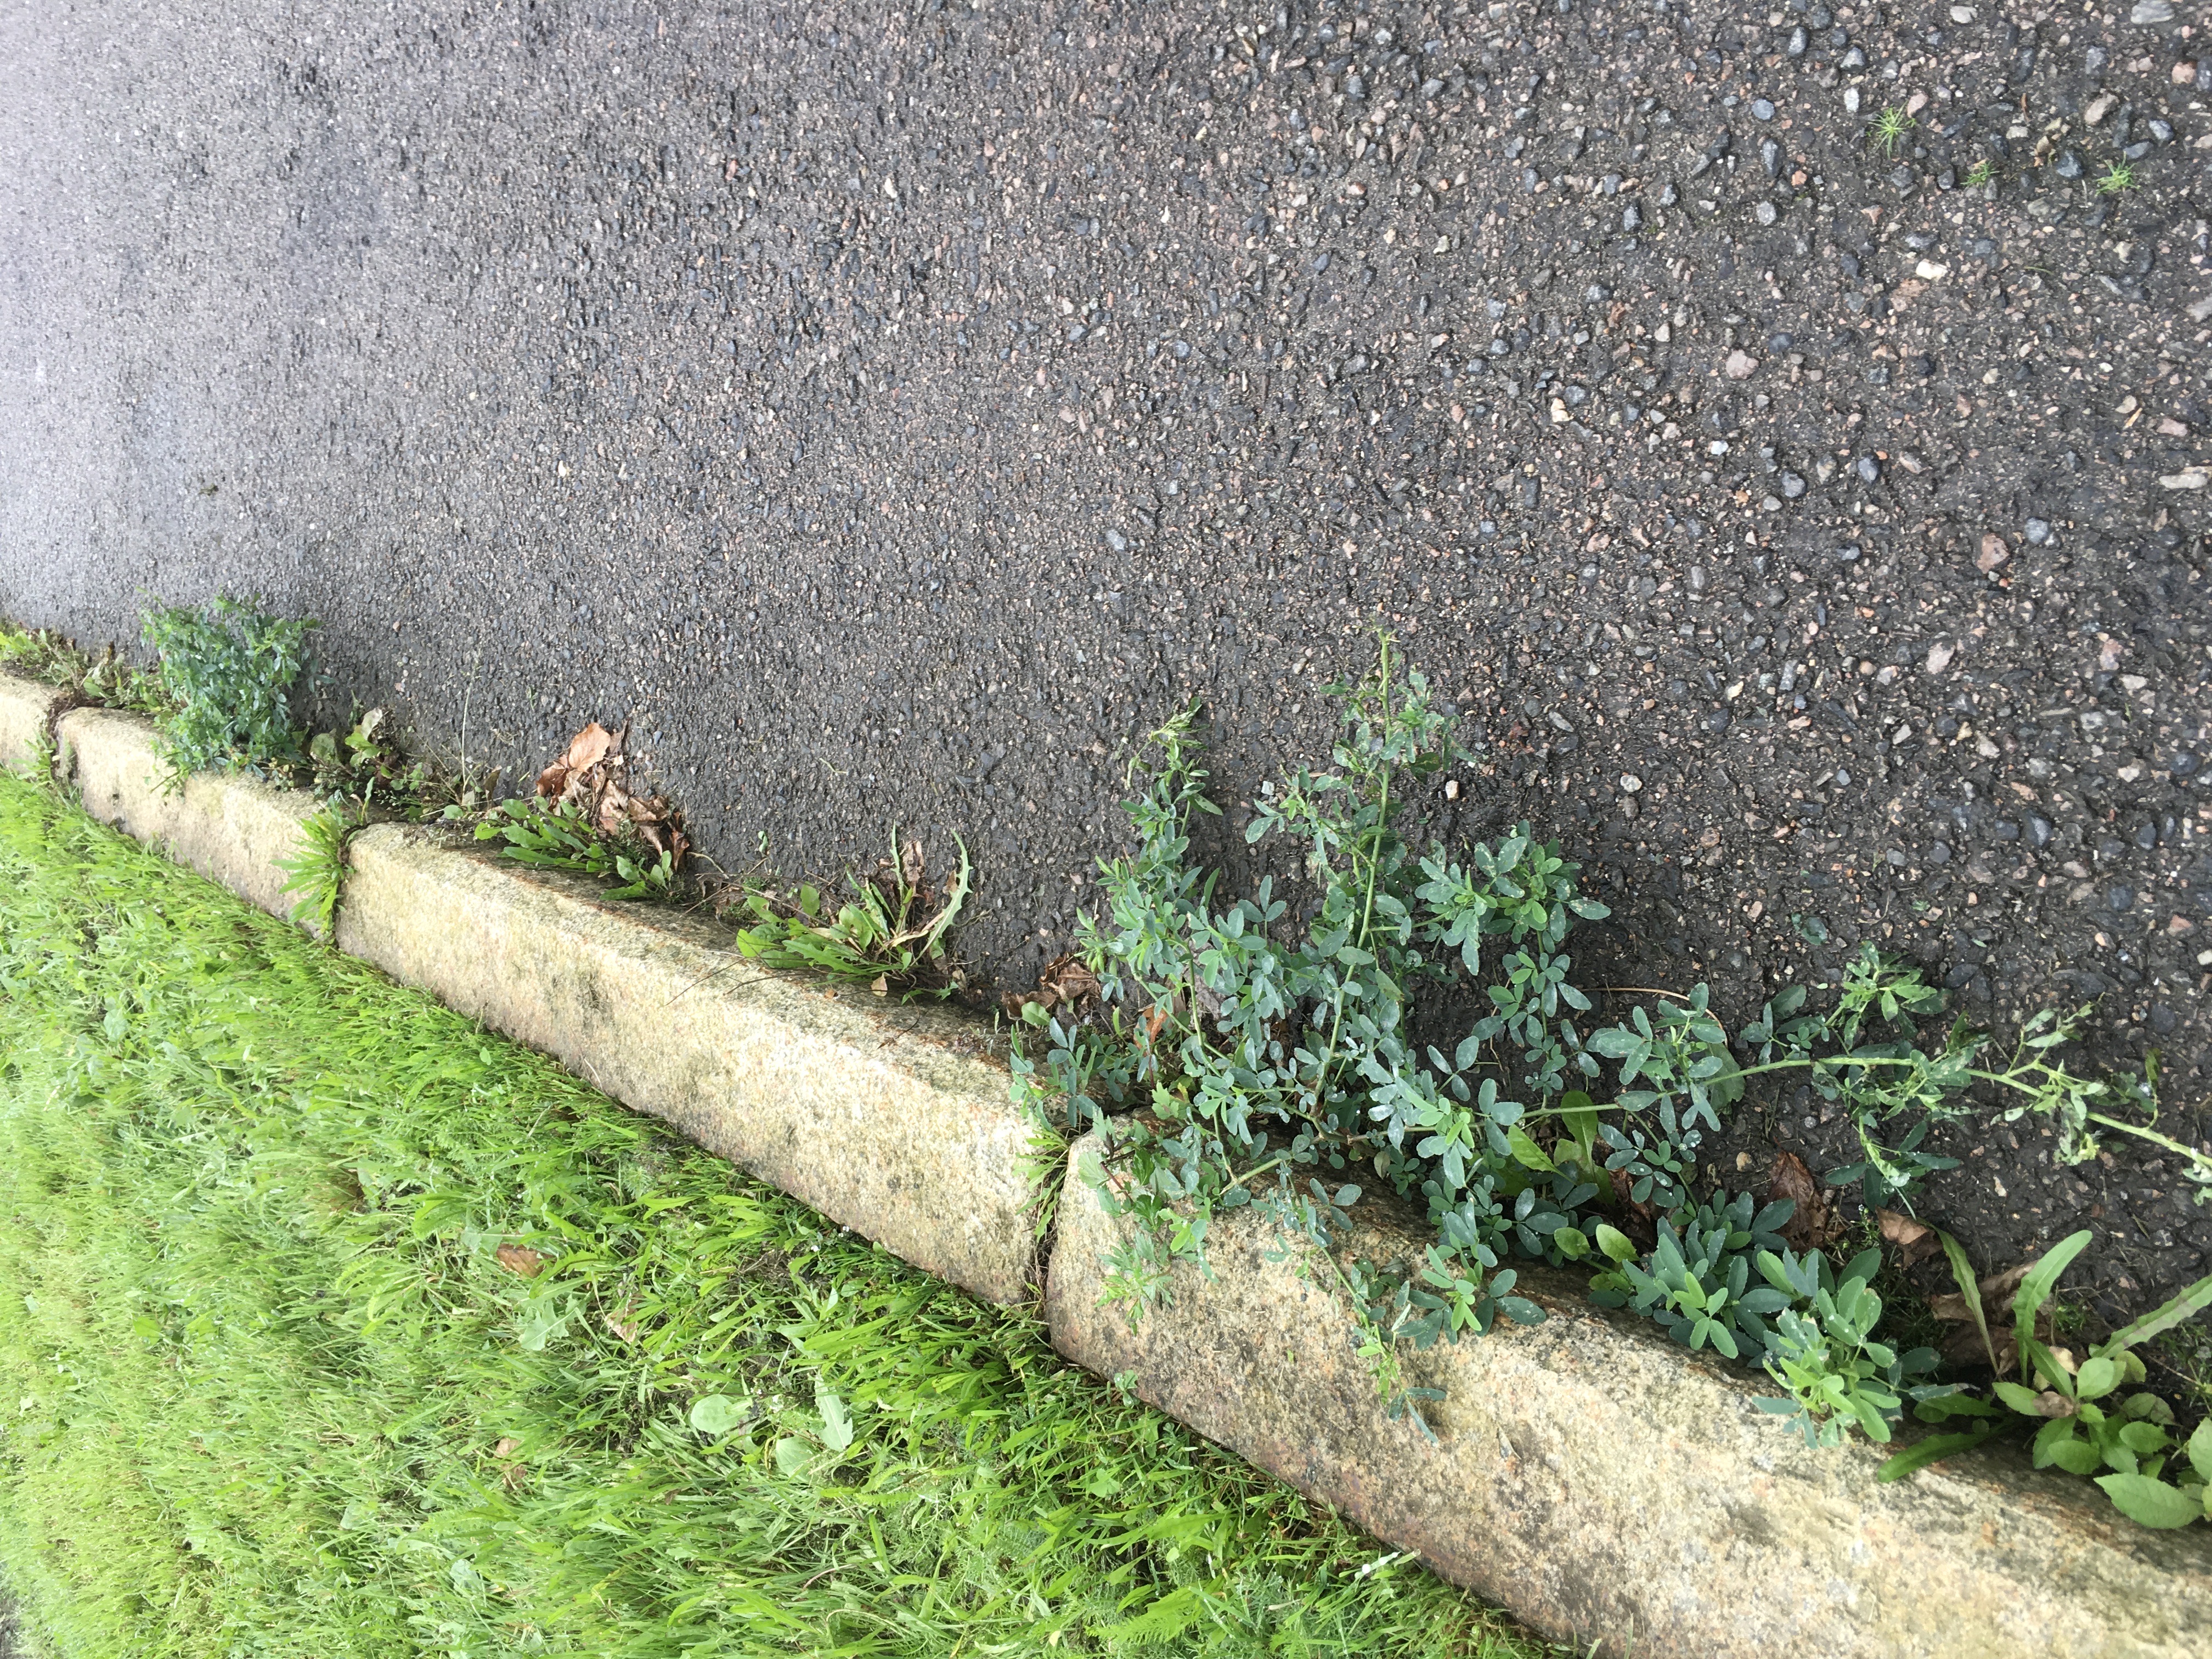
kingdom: Plantae
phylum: Tracheophyta
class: Magnoliopsida
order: Fabales
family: Fabaceae
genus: Melilotus
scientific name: Melilotus albus
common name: hvitsteinkløver
